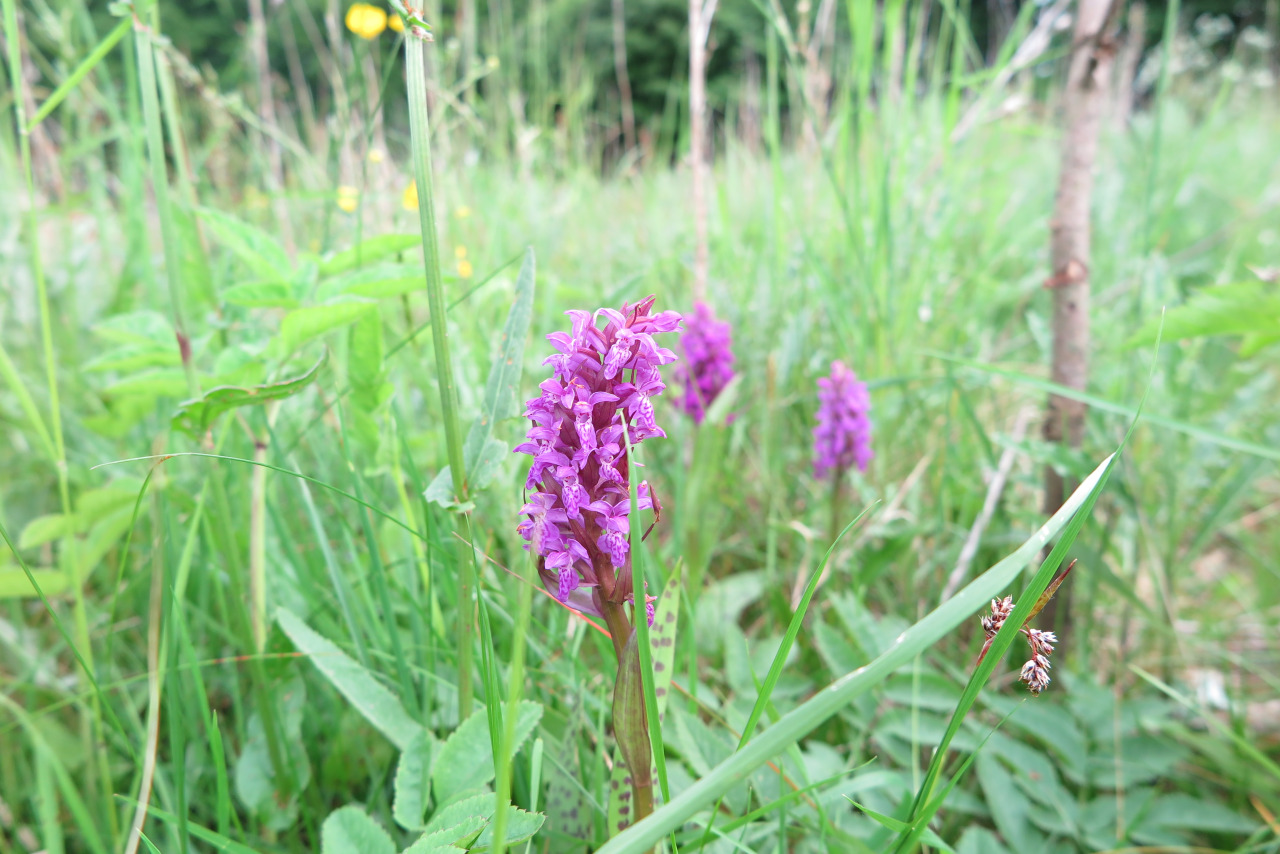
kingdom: Plantae
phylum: Tracheophyta
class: Liliopsida
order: Asparagales
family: Orchidaceae
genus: Dactylorhiza
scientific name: Dactylorhiza majalis
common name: Maj-gøgeurt
